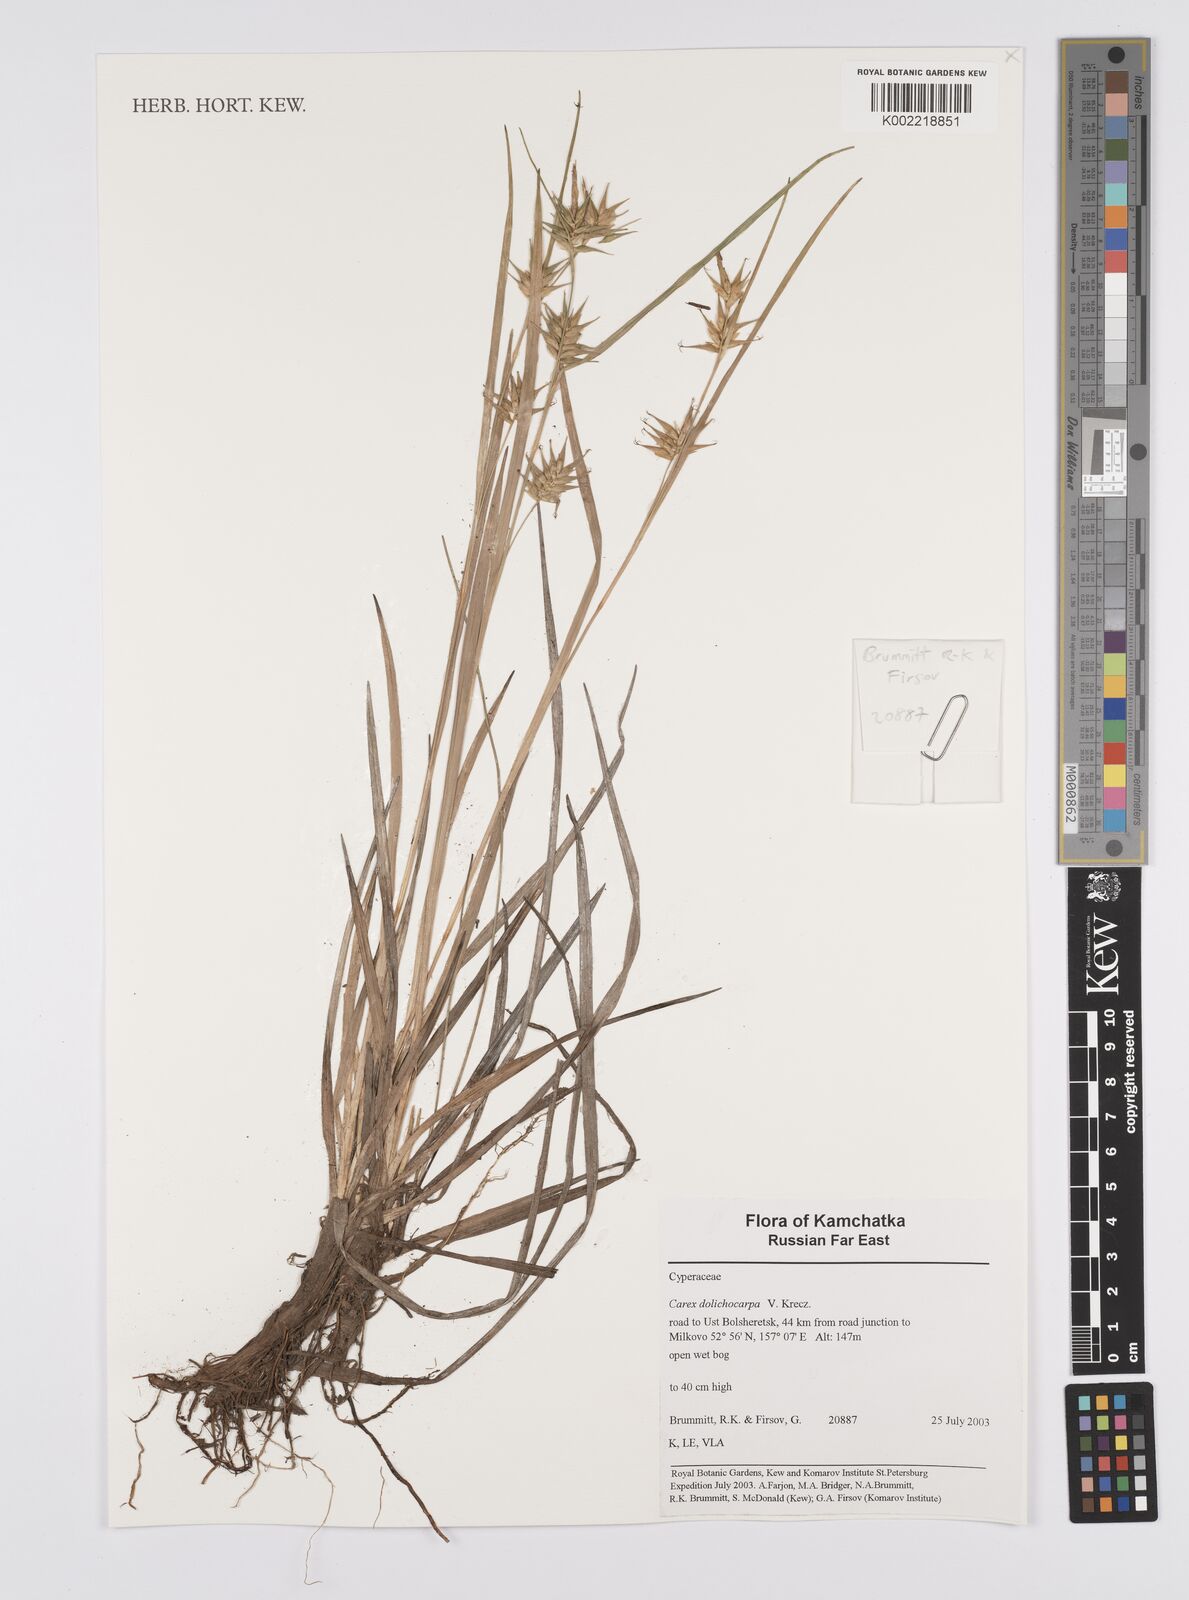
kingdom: Plantae
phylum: Tracheophyta
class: Liliopsida
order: Poales
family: Cyperaceae
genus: Carex
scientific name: Carex michauxiana
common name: Michaux's sedge
